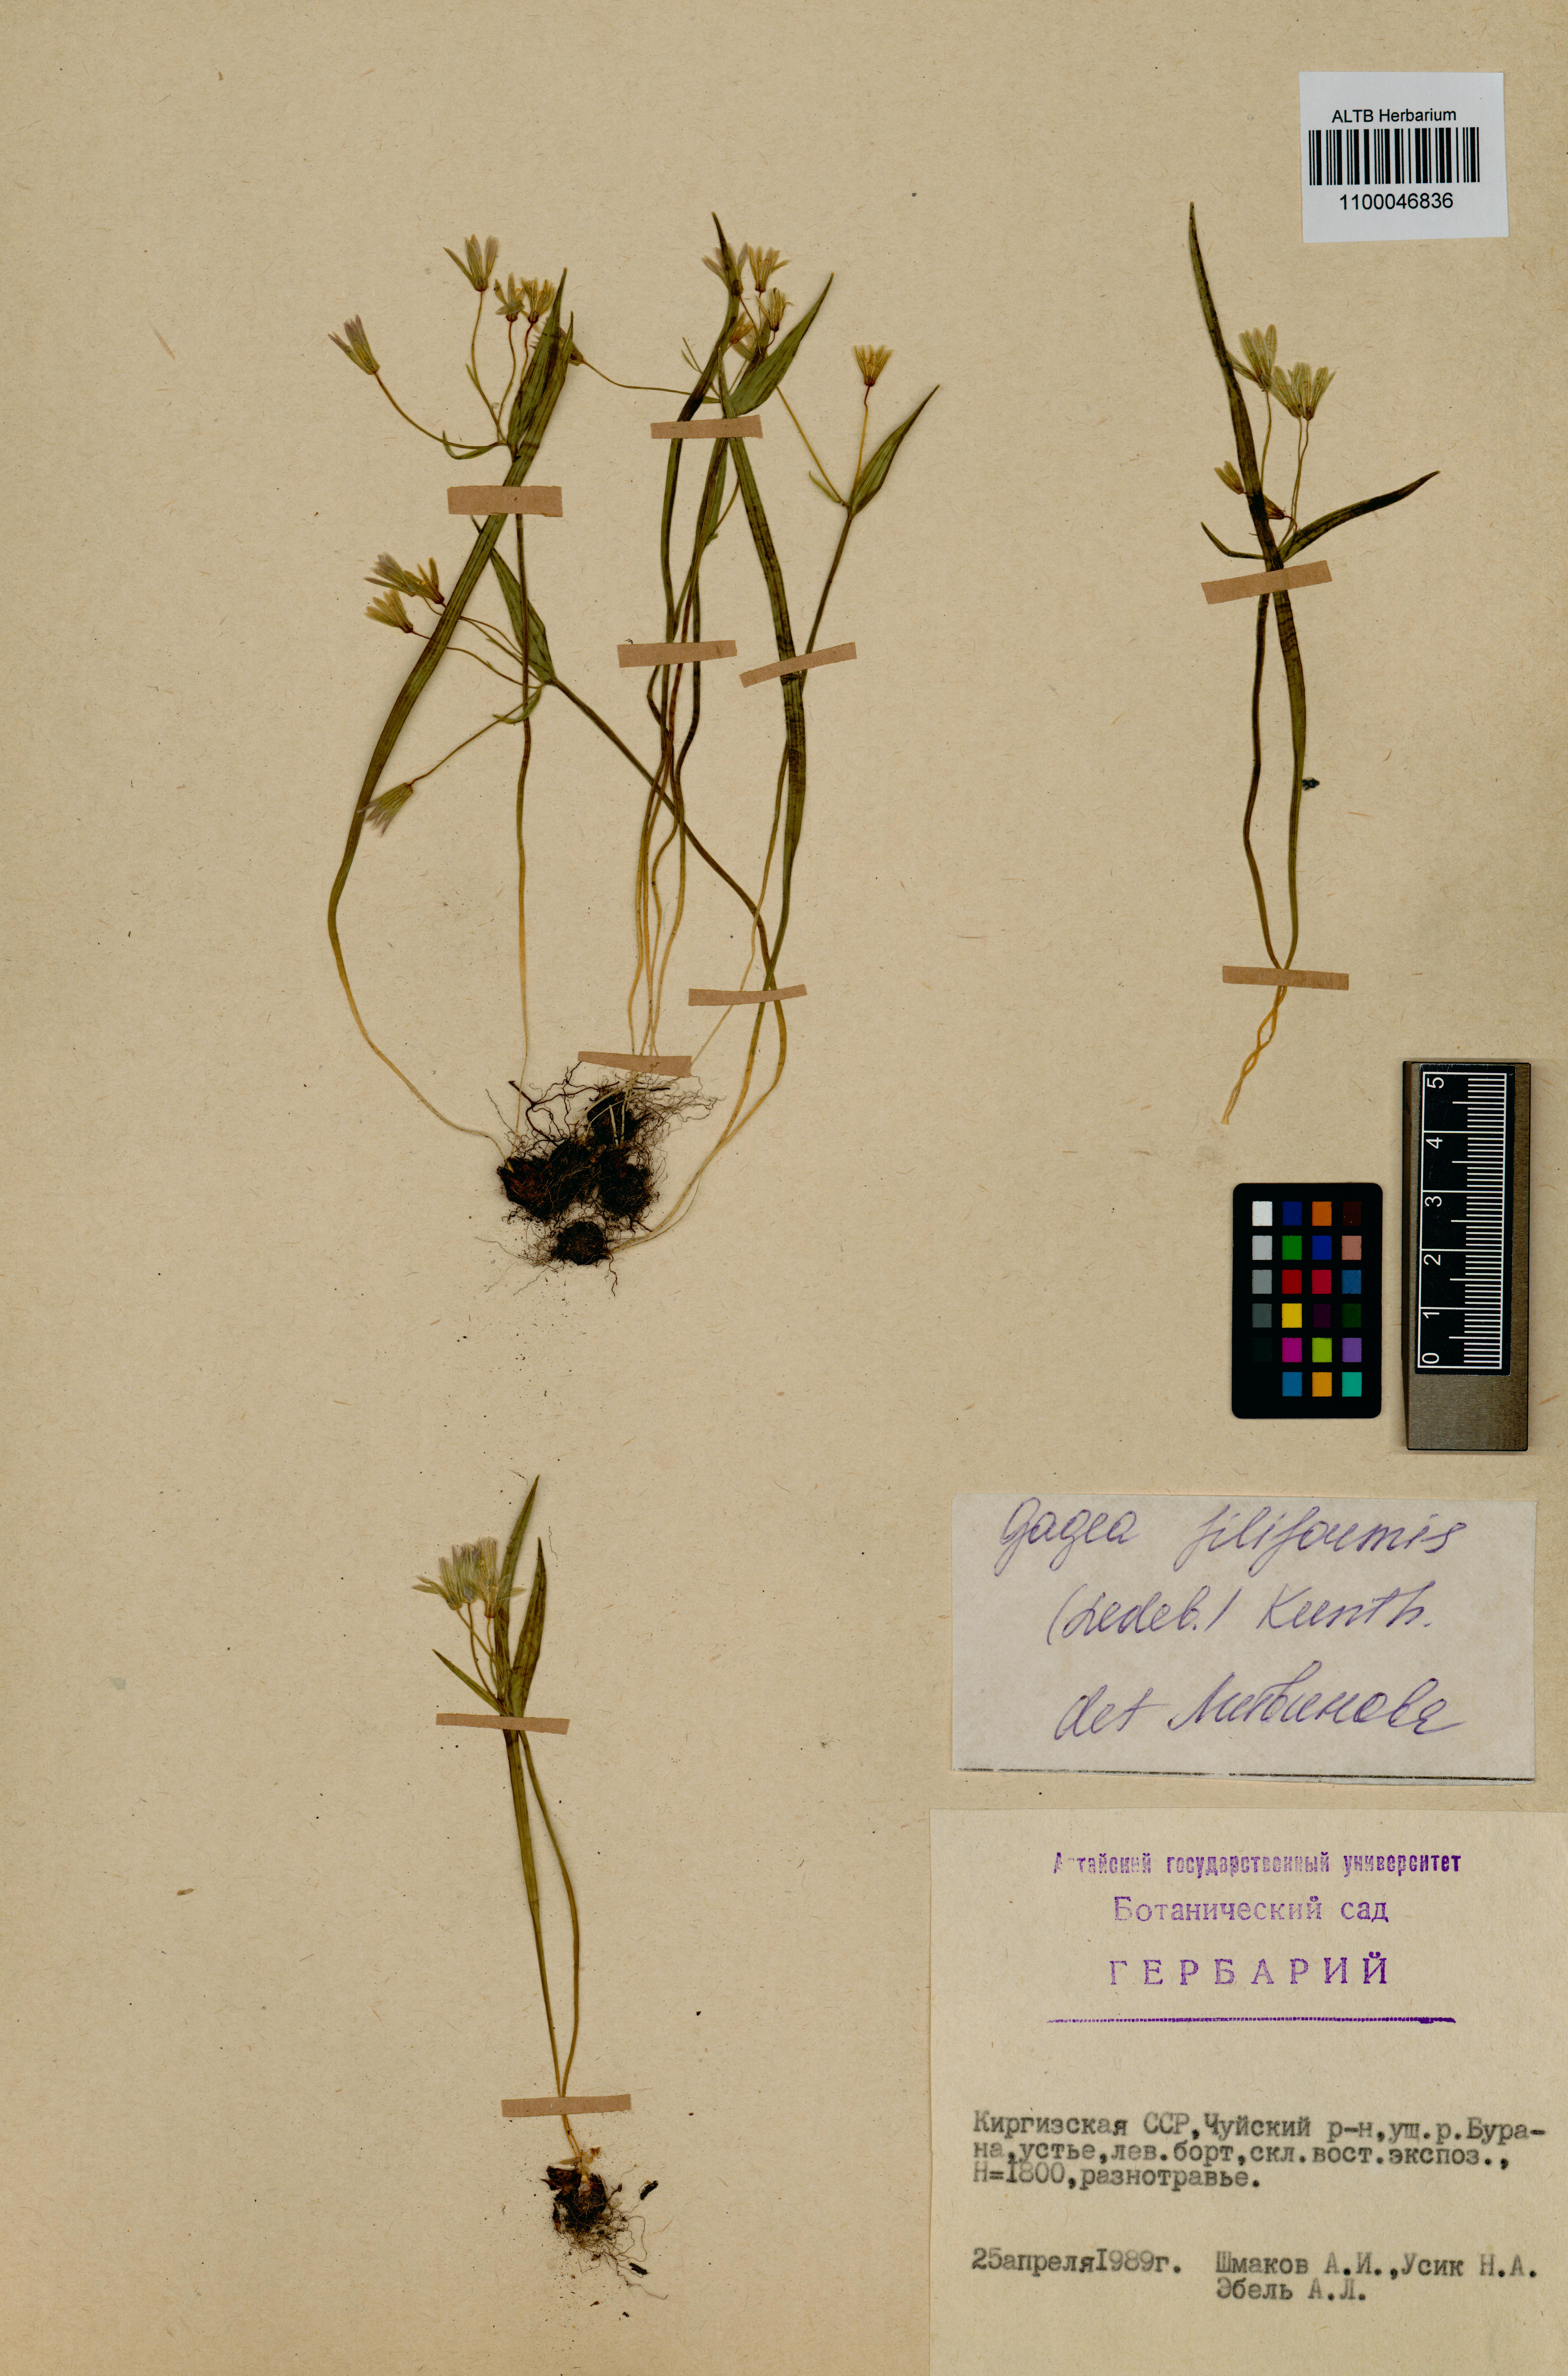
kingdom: Plantae
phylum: Tracheophyta
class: Liliopsida
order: Liliales
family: Liliaceae
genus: Gagea
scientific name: Gagea filiformis
